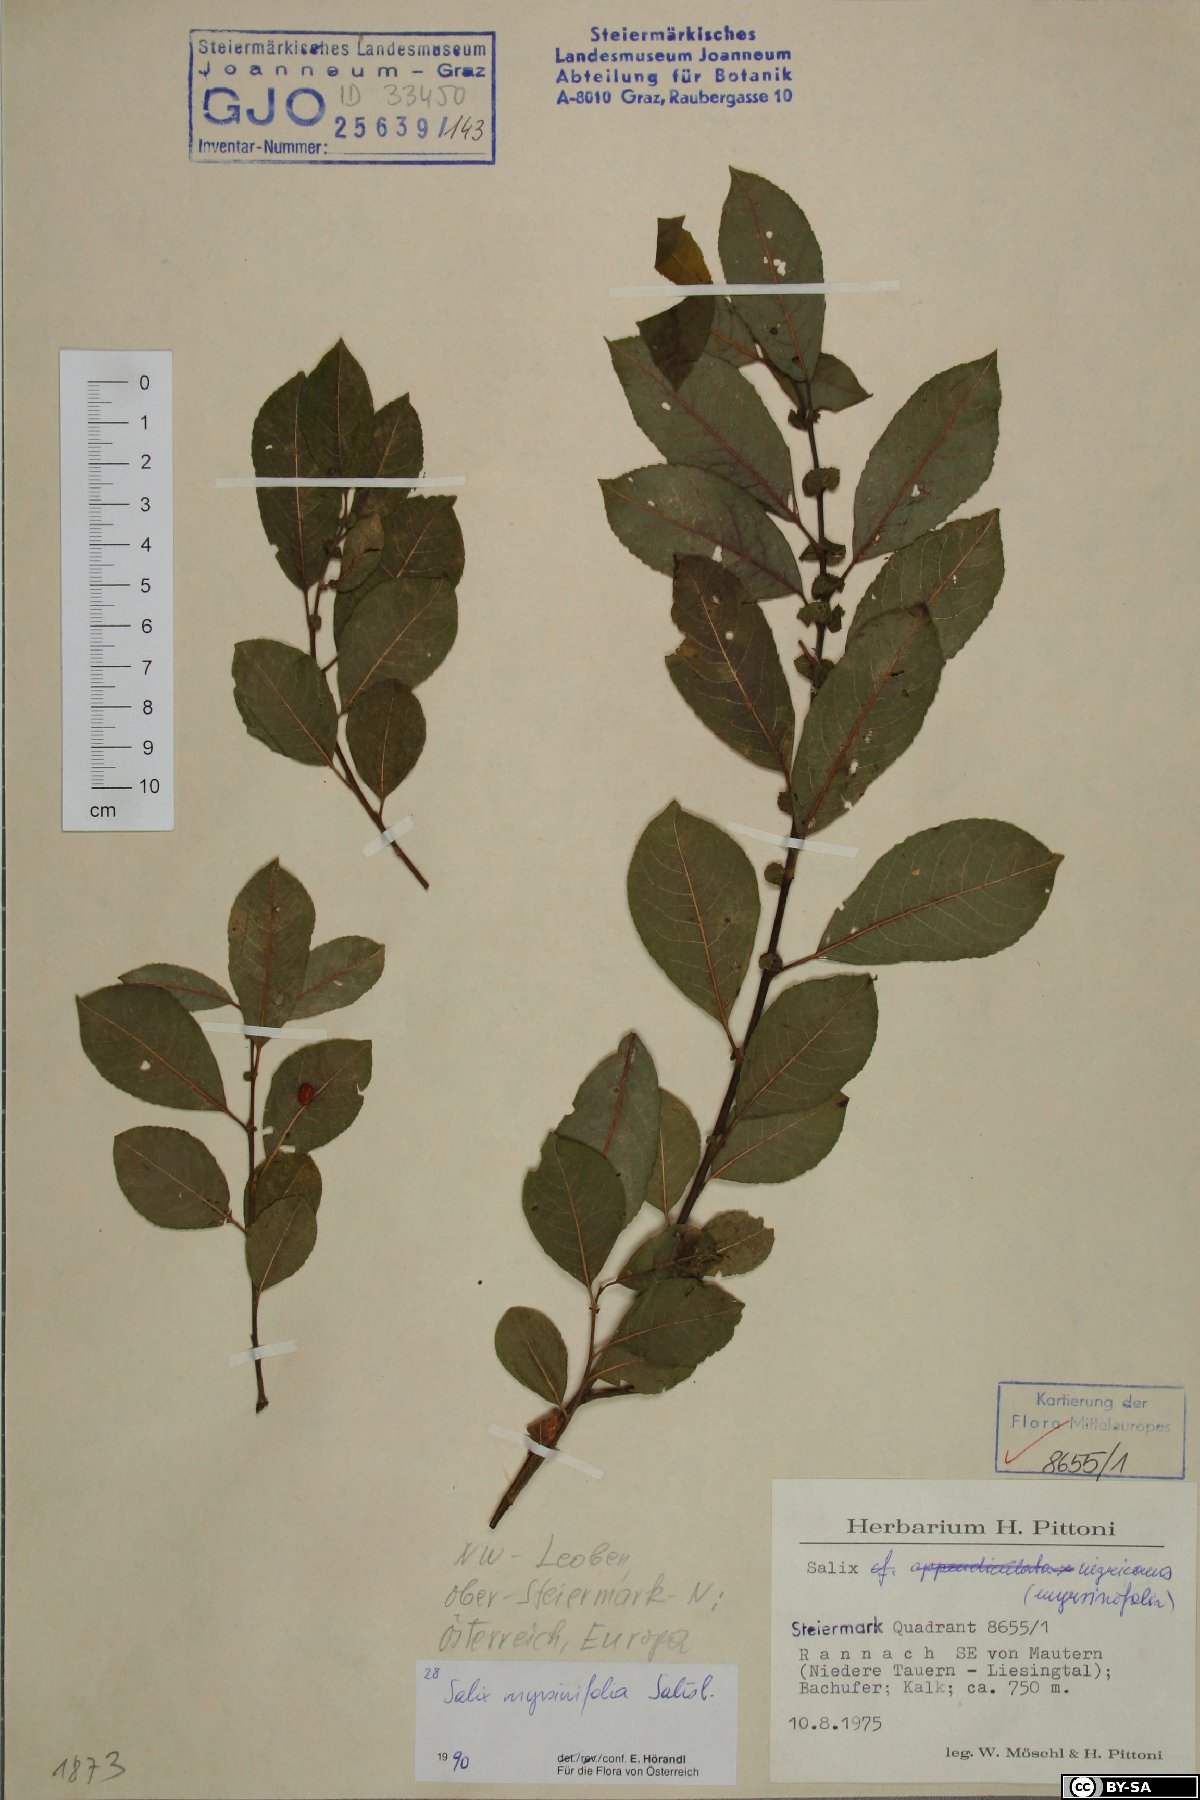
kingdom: Plantae
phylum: Tracheophyta
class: Magnoliopsida
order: Malpighiales
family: Salicaceae
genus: Salix
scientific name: Salix myrsinifolia
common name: Dark-leaved willow
